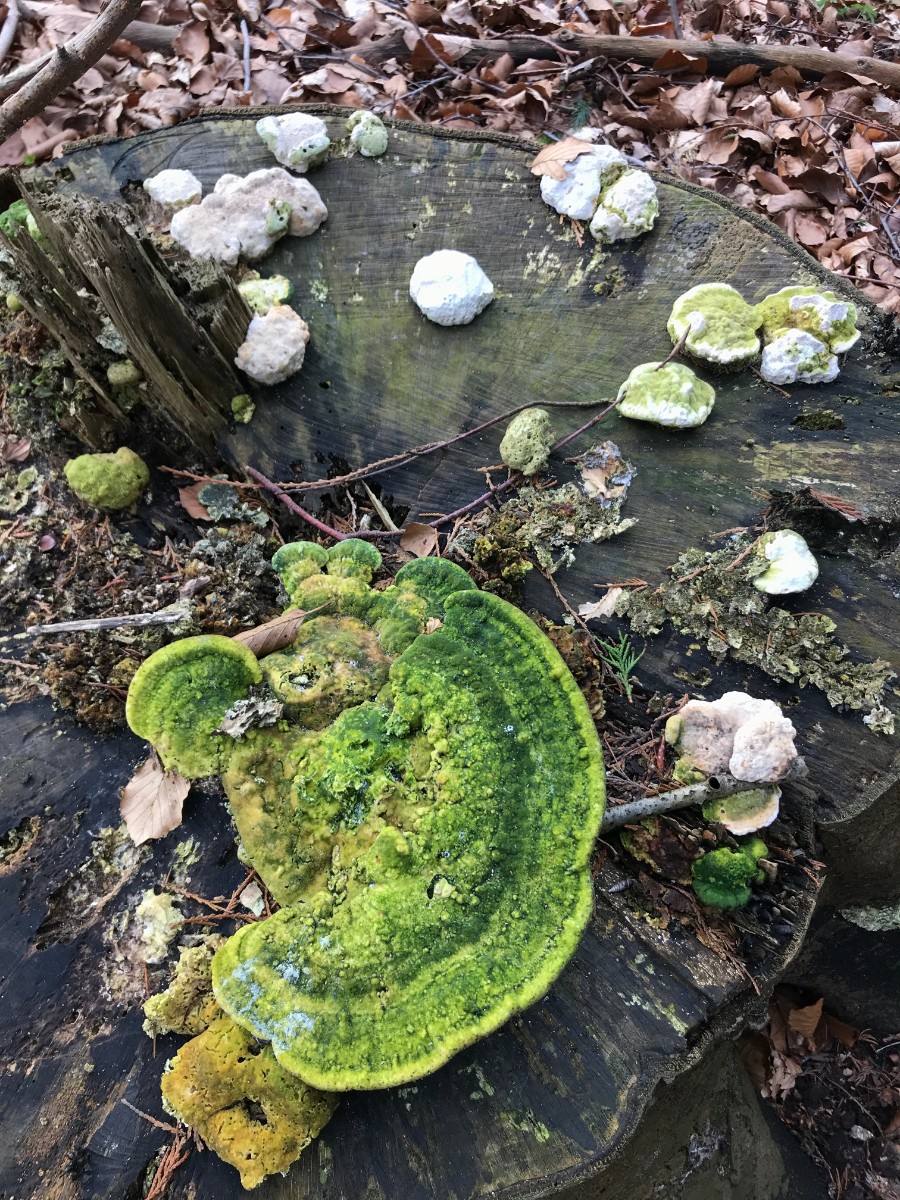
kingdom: Fungi
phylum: Basidiomycota
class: Agaricomycetes
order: Polyporales
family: Polyporaceae
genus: Trametes
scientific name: Trametes gibbosa
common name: puklet læderporesvamp
